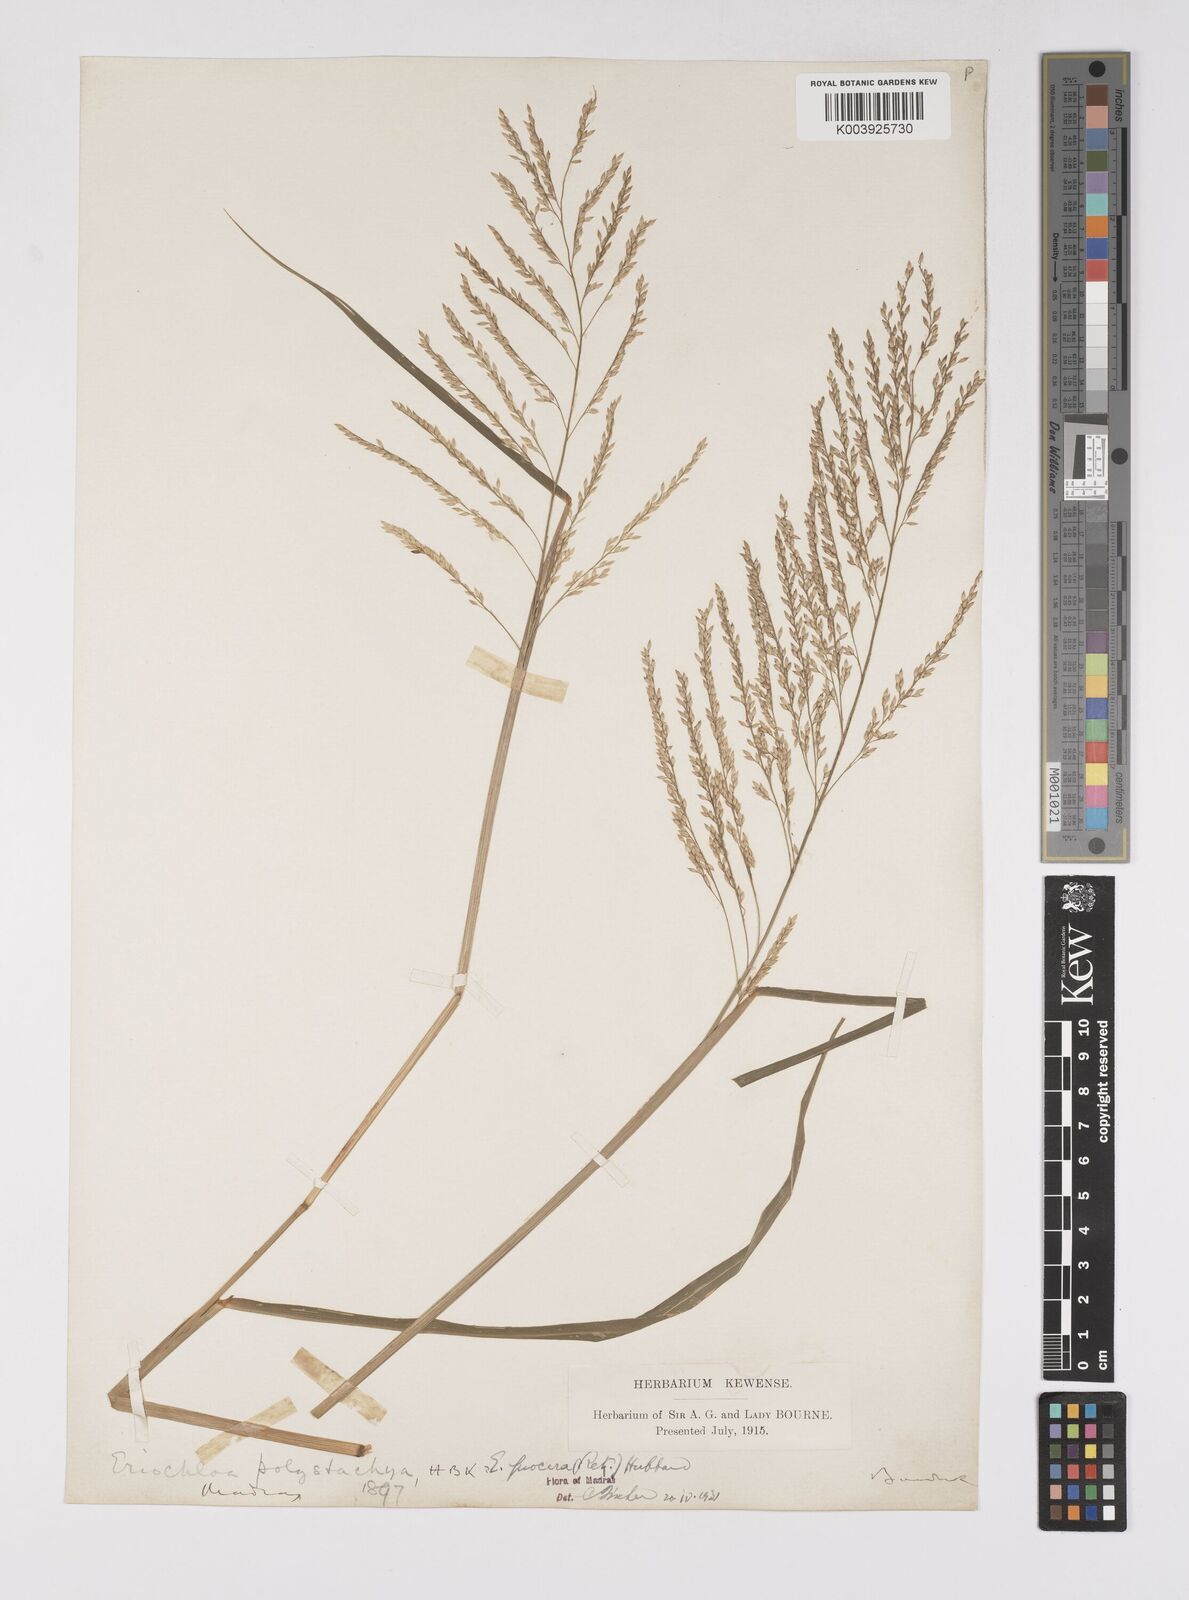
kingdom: Plantae
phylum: Tracheophyta
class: Liliopsida
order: Poales
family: Poaceae
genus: Eriochloa
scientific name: Eriochloa procera
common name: Spring grass
